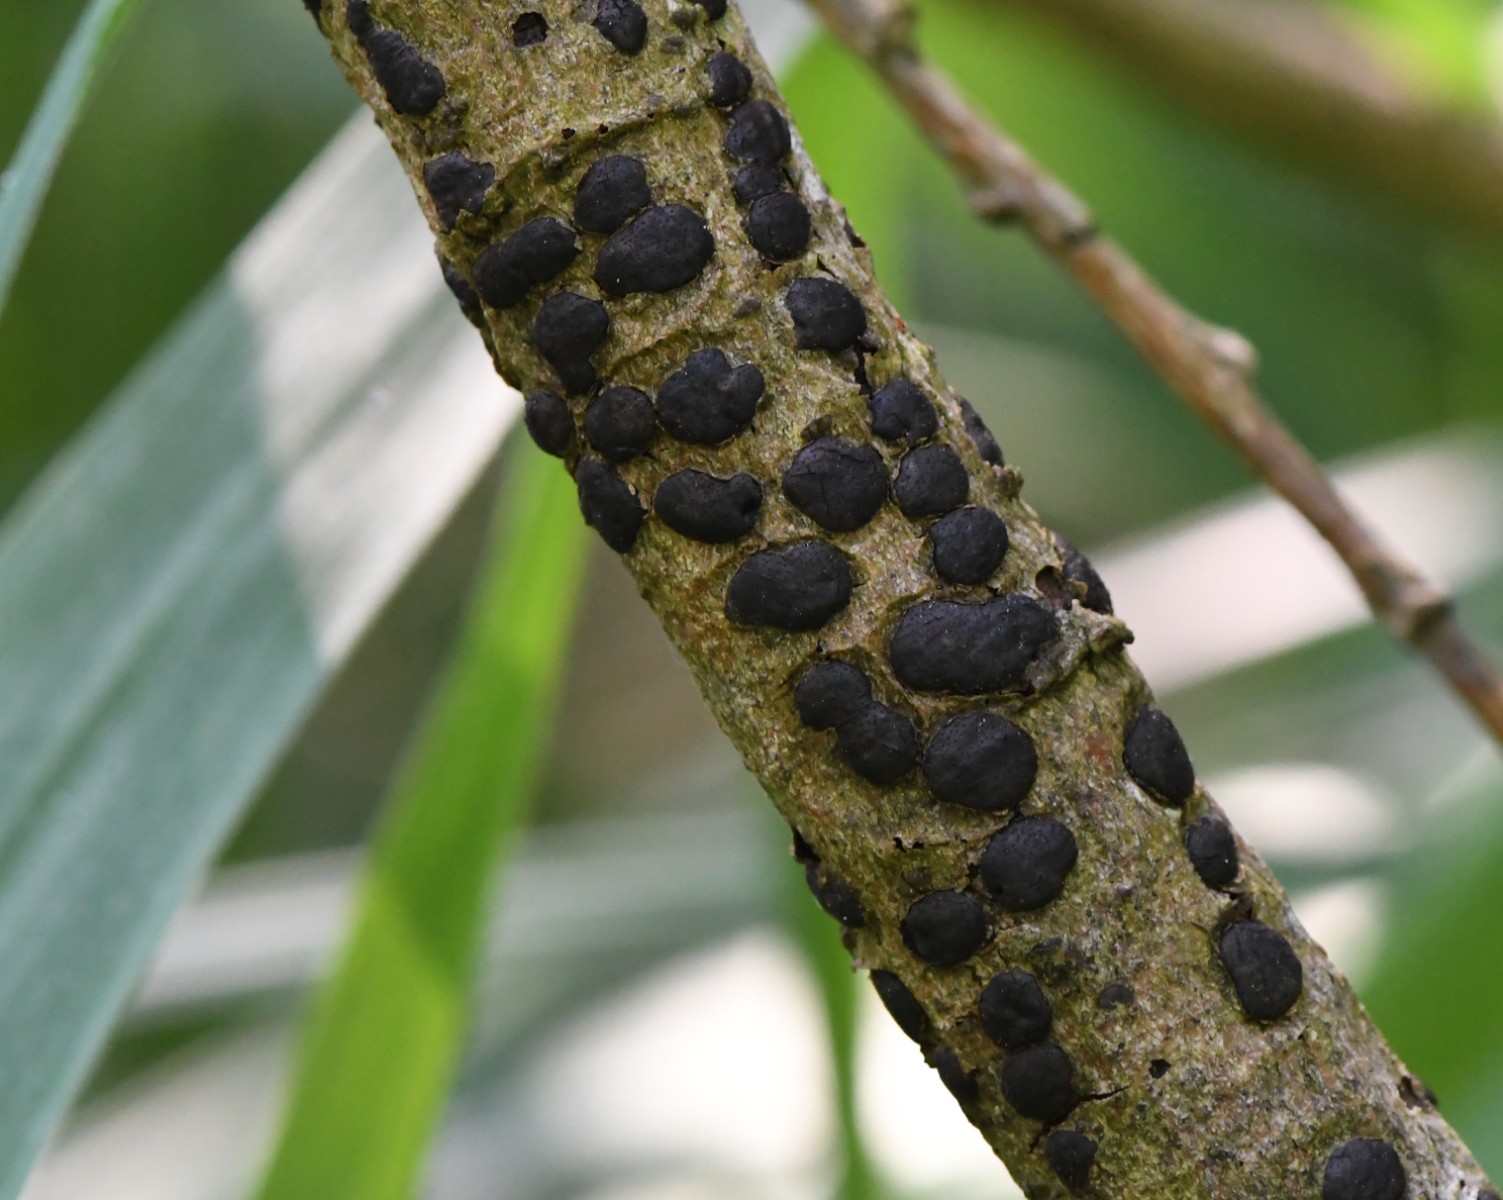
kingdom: Fungi
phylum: Ascomycota
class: Sordariomycetes
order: Xylariales
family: Diatrypaceae
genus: Diatrype
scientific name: Diatrype bullata
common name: pile-kulskorpe
